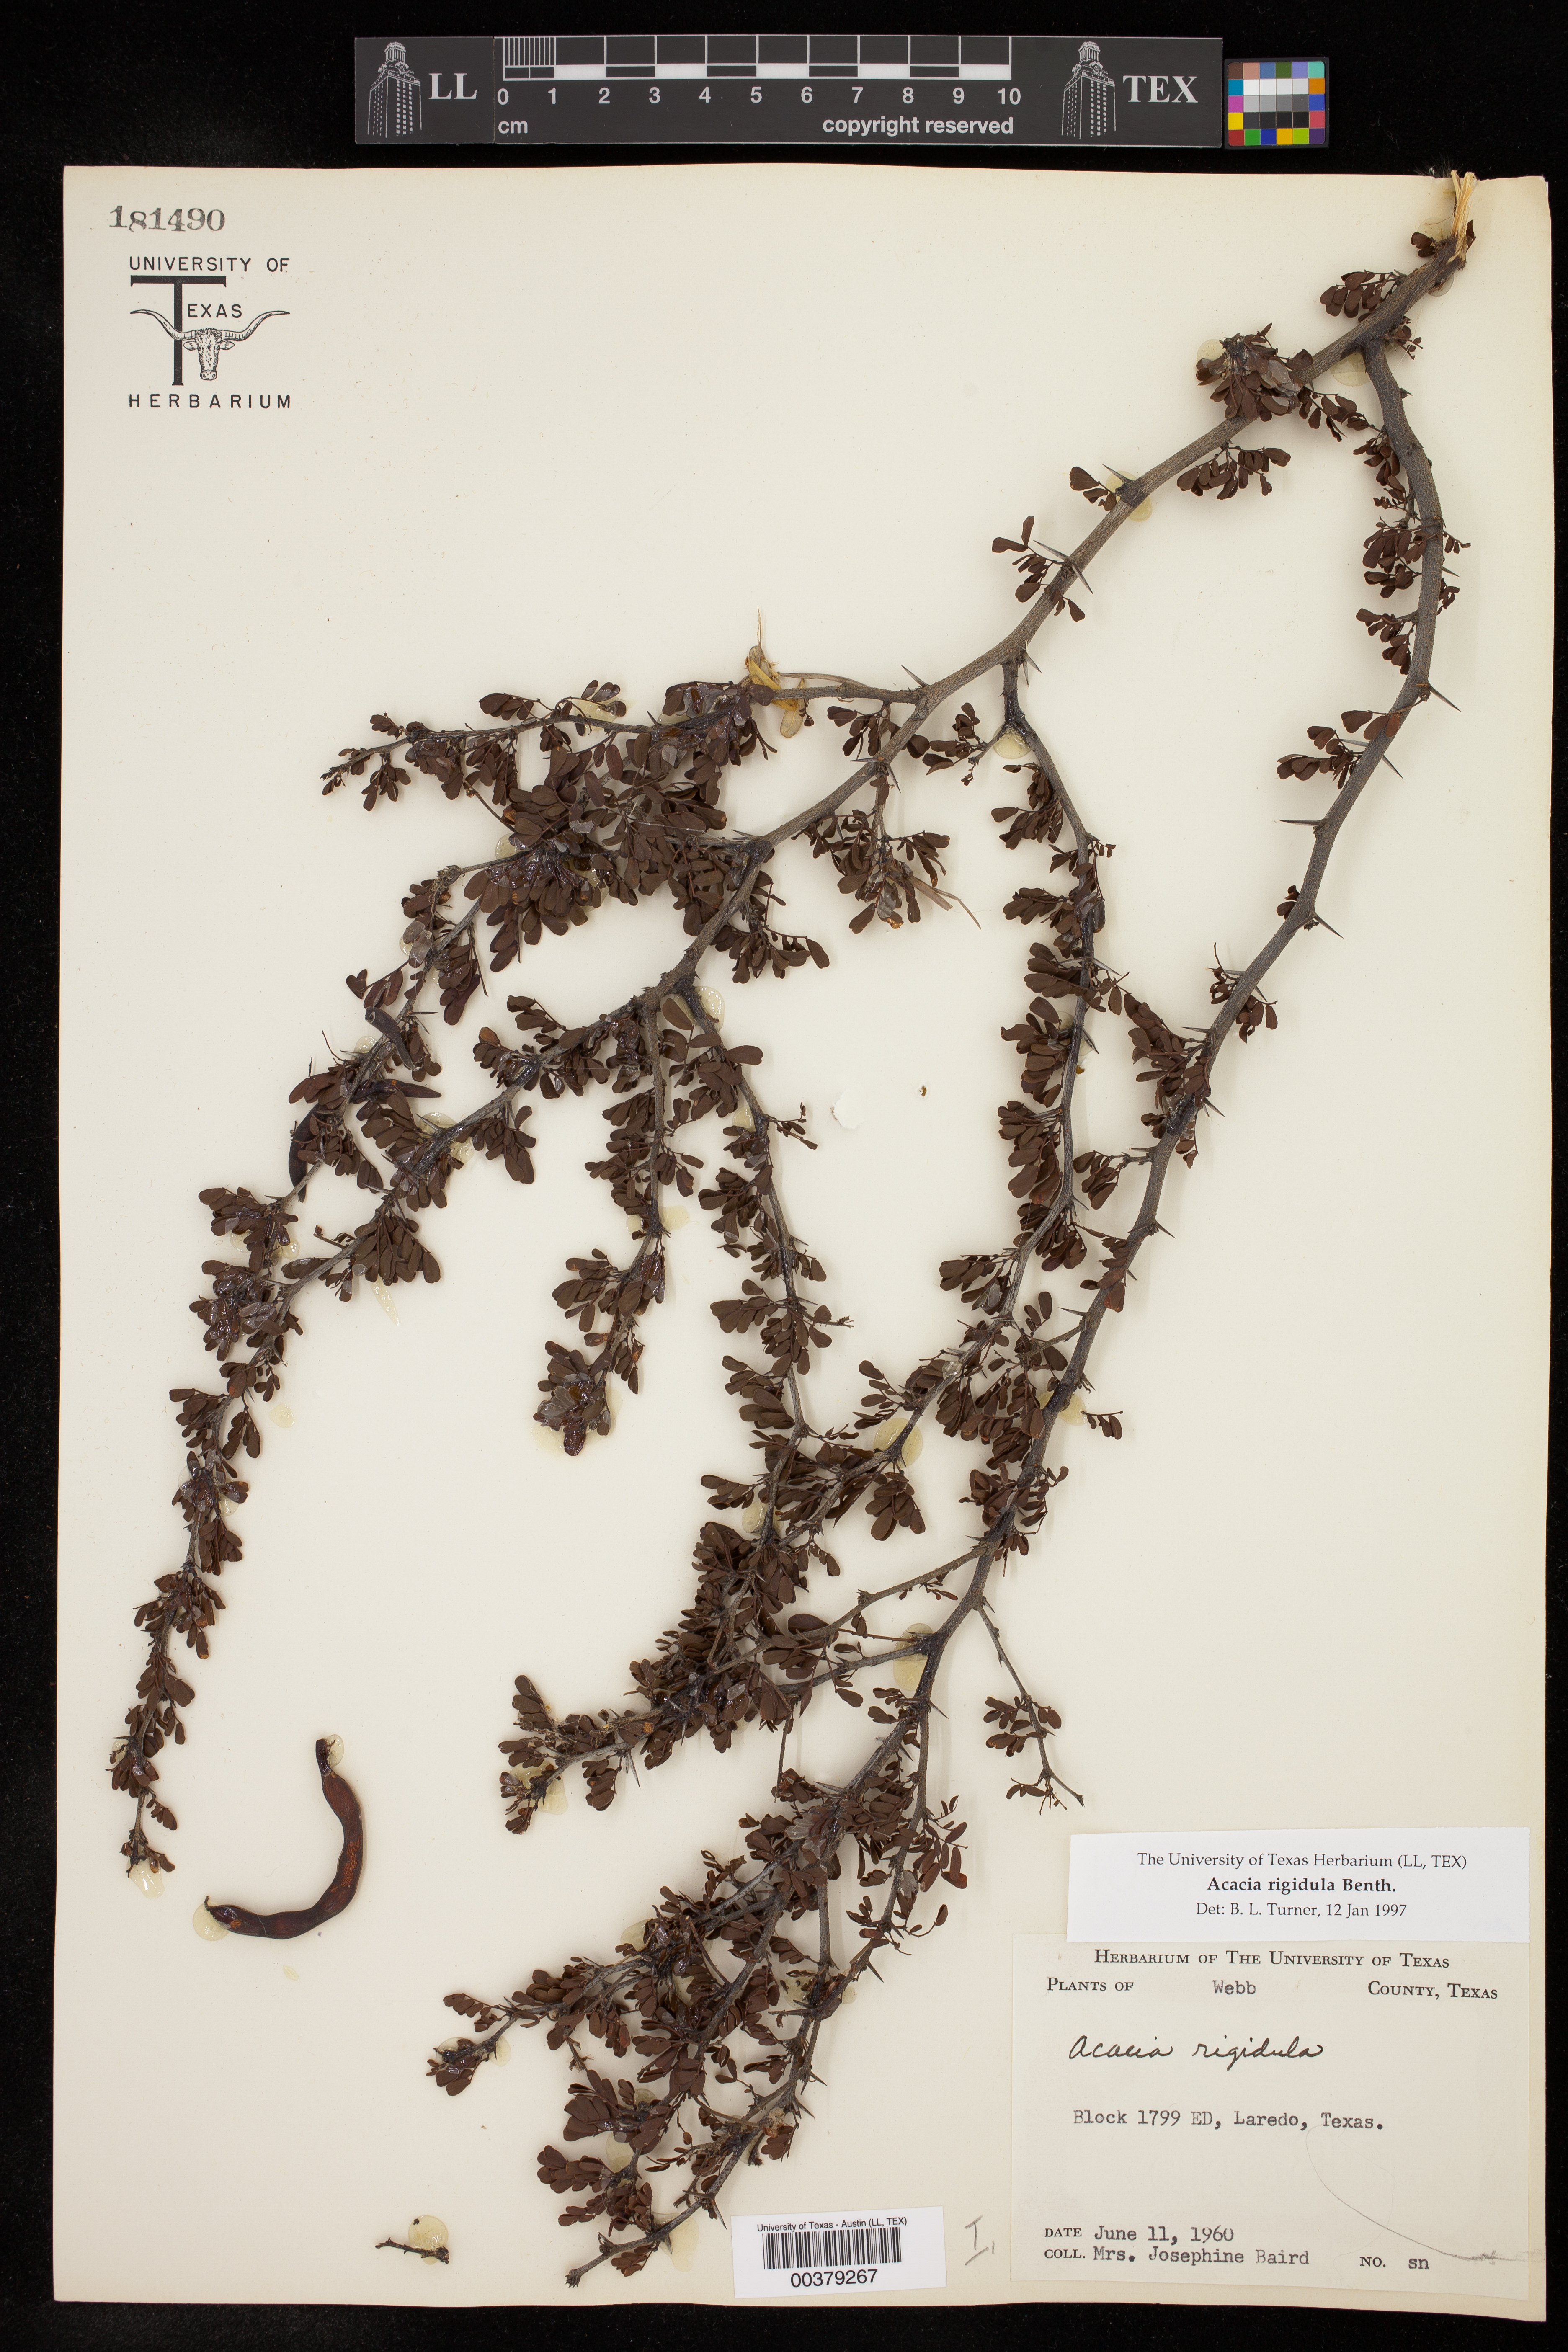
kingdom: Plantae
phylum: Tracheophyta
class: Magnoliopsida
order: Fabales
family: Fabaceae
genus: Vachellia
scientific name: Vachellia rigidula
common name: Blackbrush
